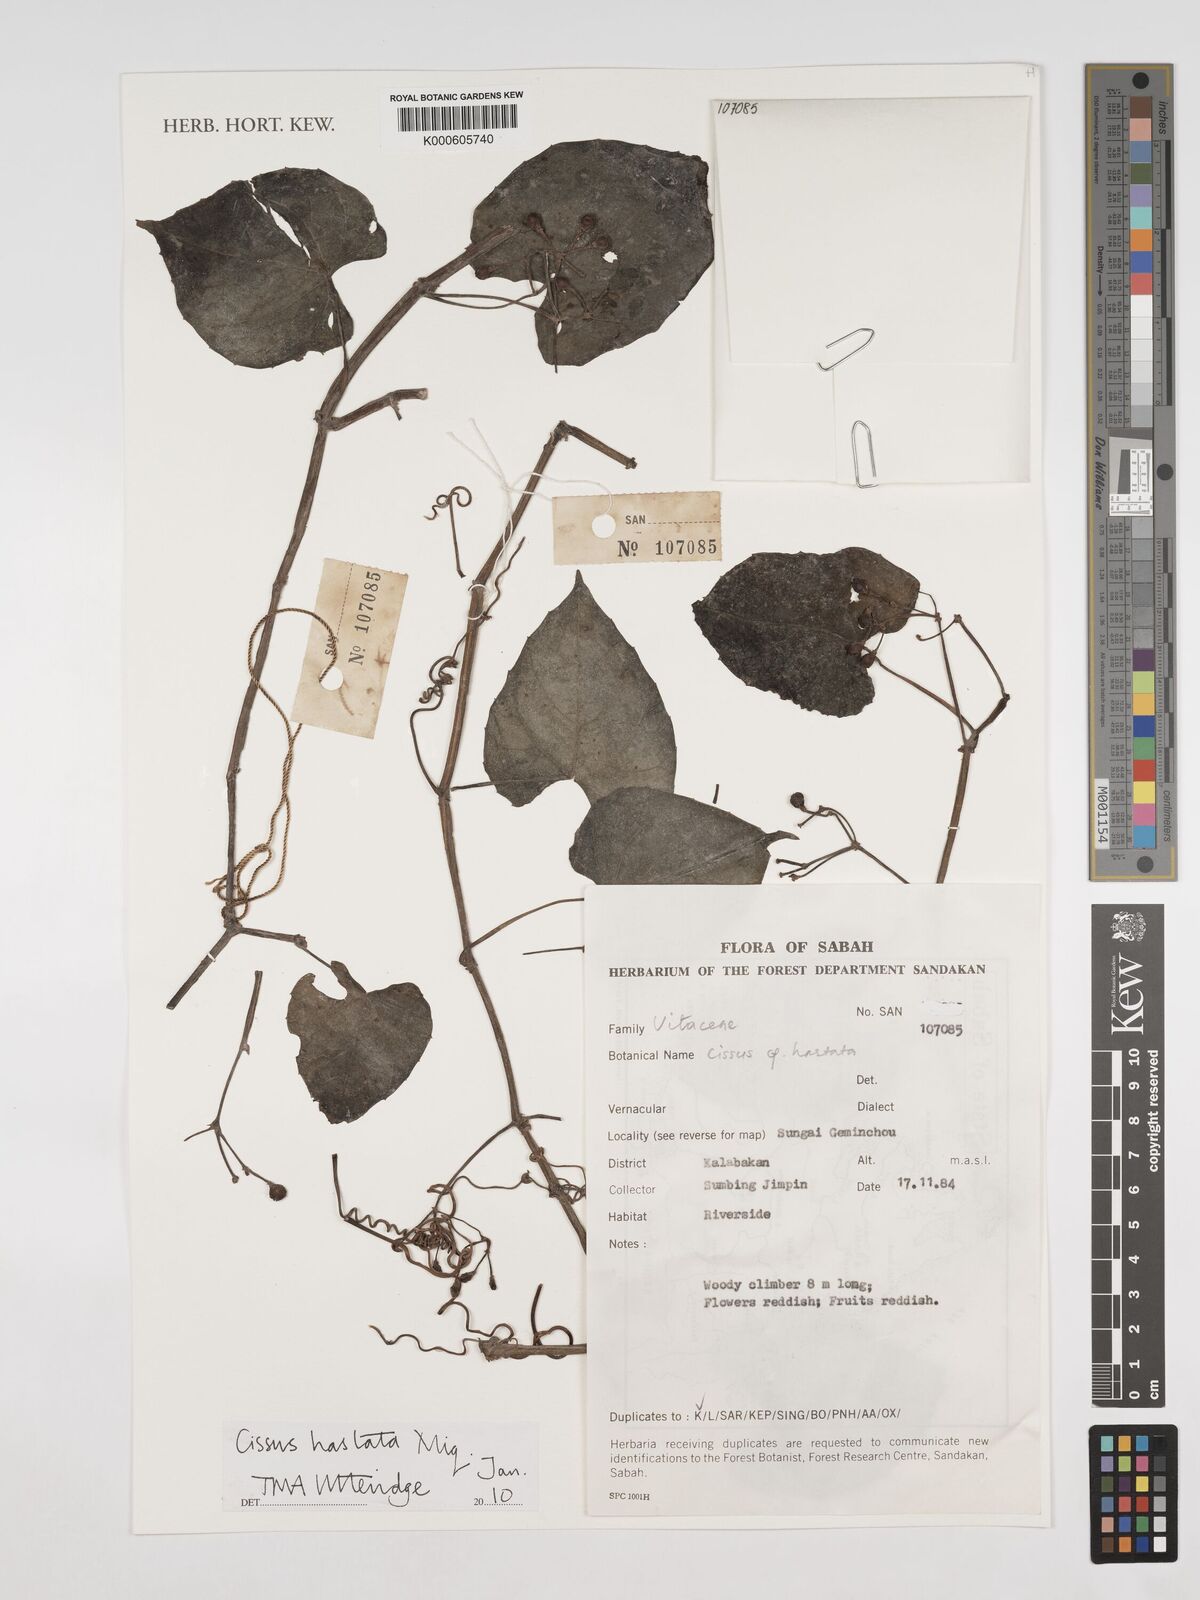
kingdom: Plantae
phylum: Tracheophyta
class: Magnoliopsida
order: Vitales
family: Vitaceae
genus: Cissus
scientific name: Cissus hastata
